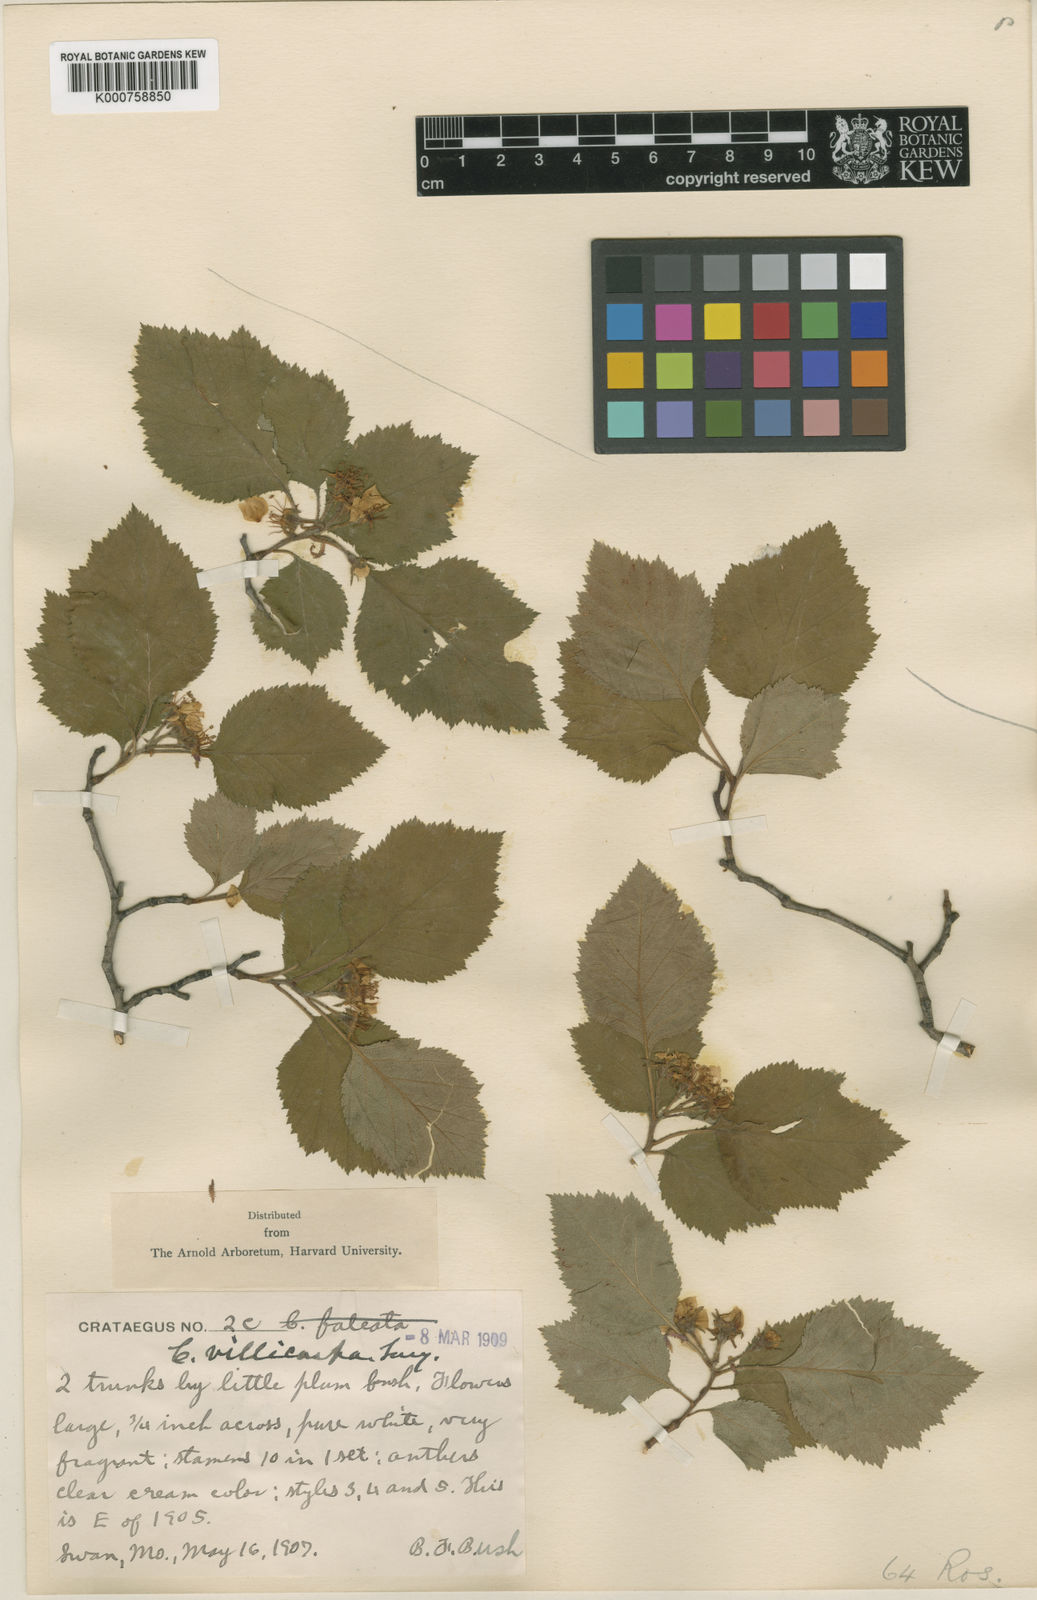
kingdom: Plantae
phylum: Tracheophyta
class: Magnoliopsida
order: Rosales
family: Rosaceae
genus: Crataegus
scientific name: Crataegus intricata
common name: Biltmore hawthorn
